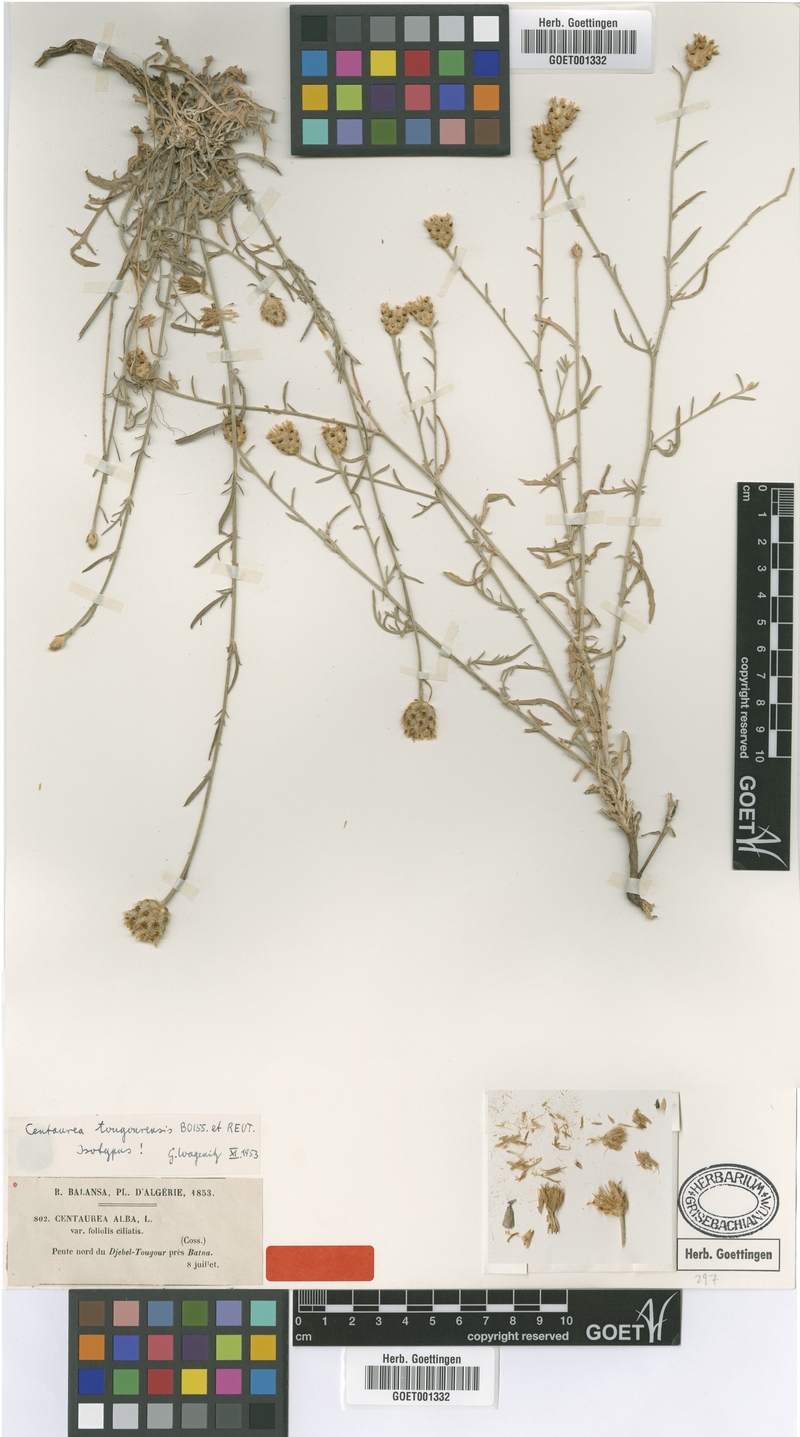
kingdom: Plantae
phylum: Tracheophyta
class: Magnoliopsida
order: Asterales
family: Asteraceae
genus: Centaurea
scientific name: Centaurea tougourensis
